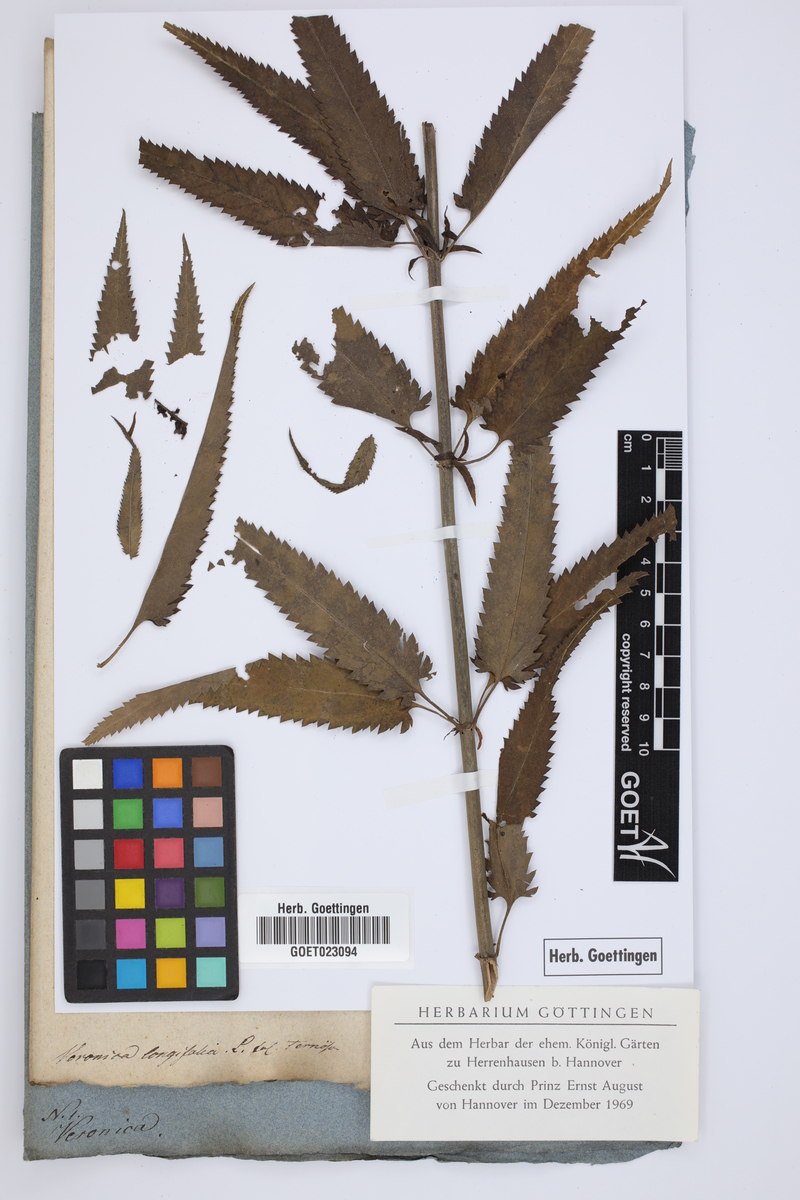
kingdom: Plantae
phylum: Tracheophyta
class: Magnoliopsida
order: Lamiales
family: Plantaginaceae
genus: Veronica
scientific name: Veronica longifolia
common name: Garden speedwell
